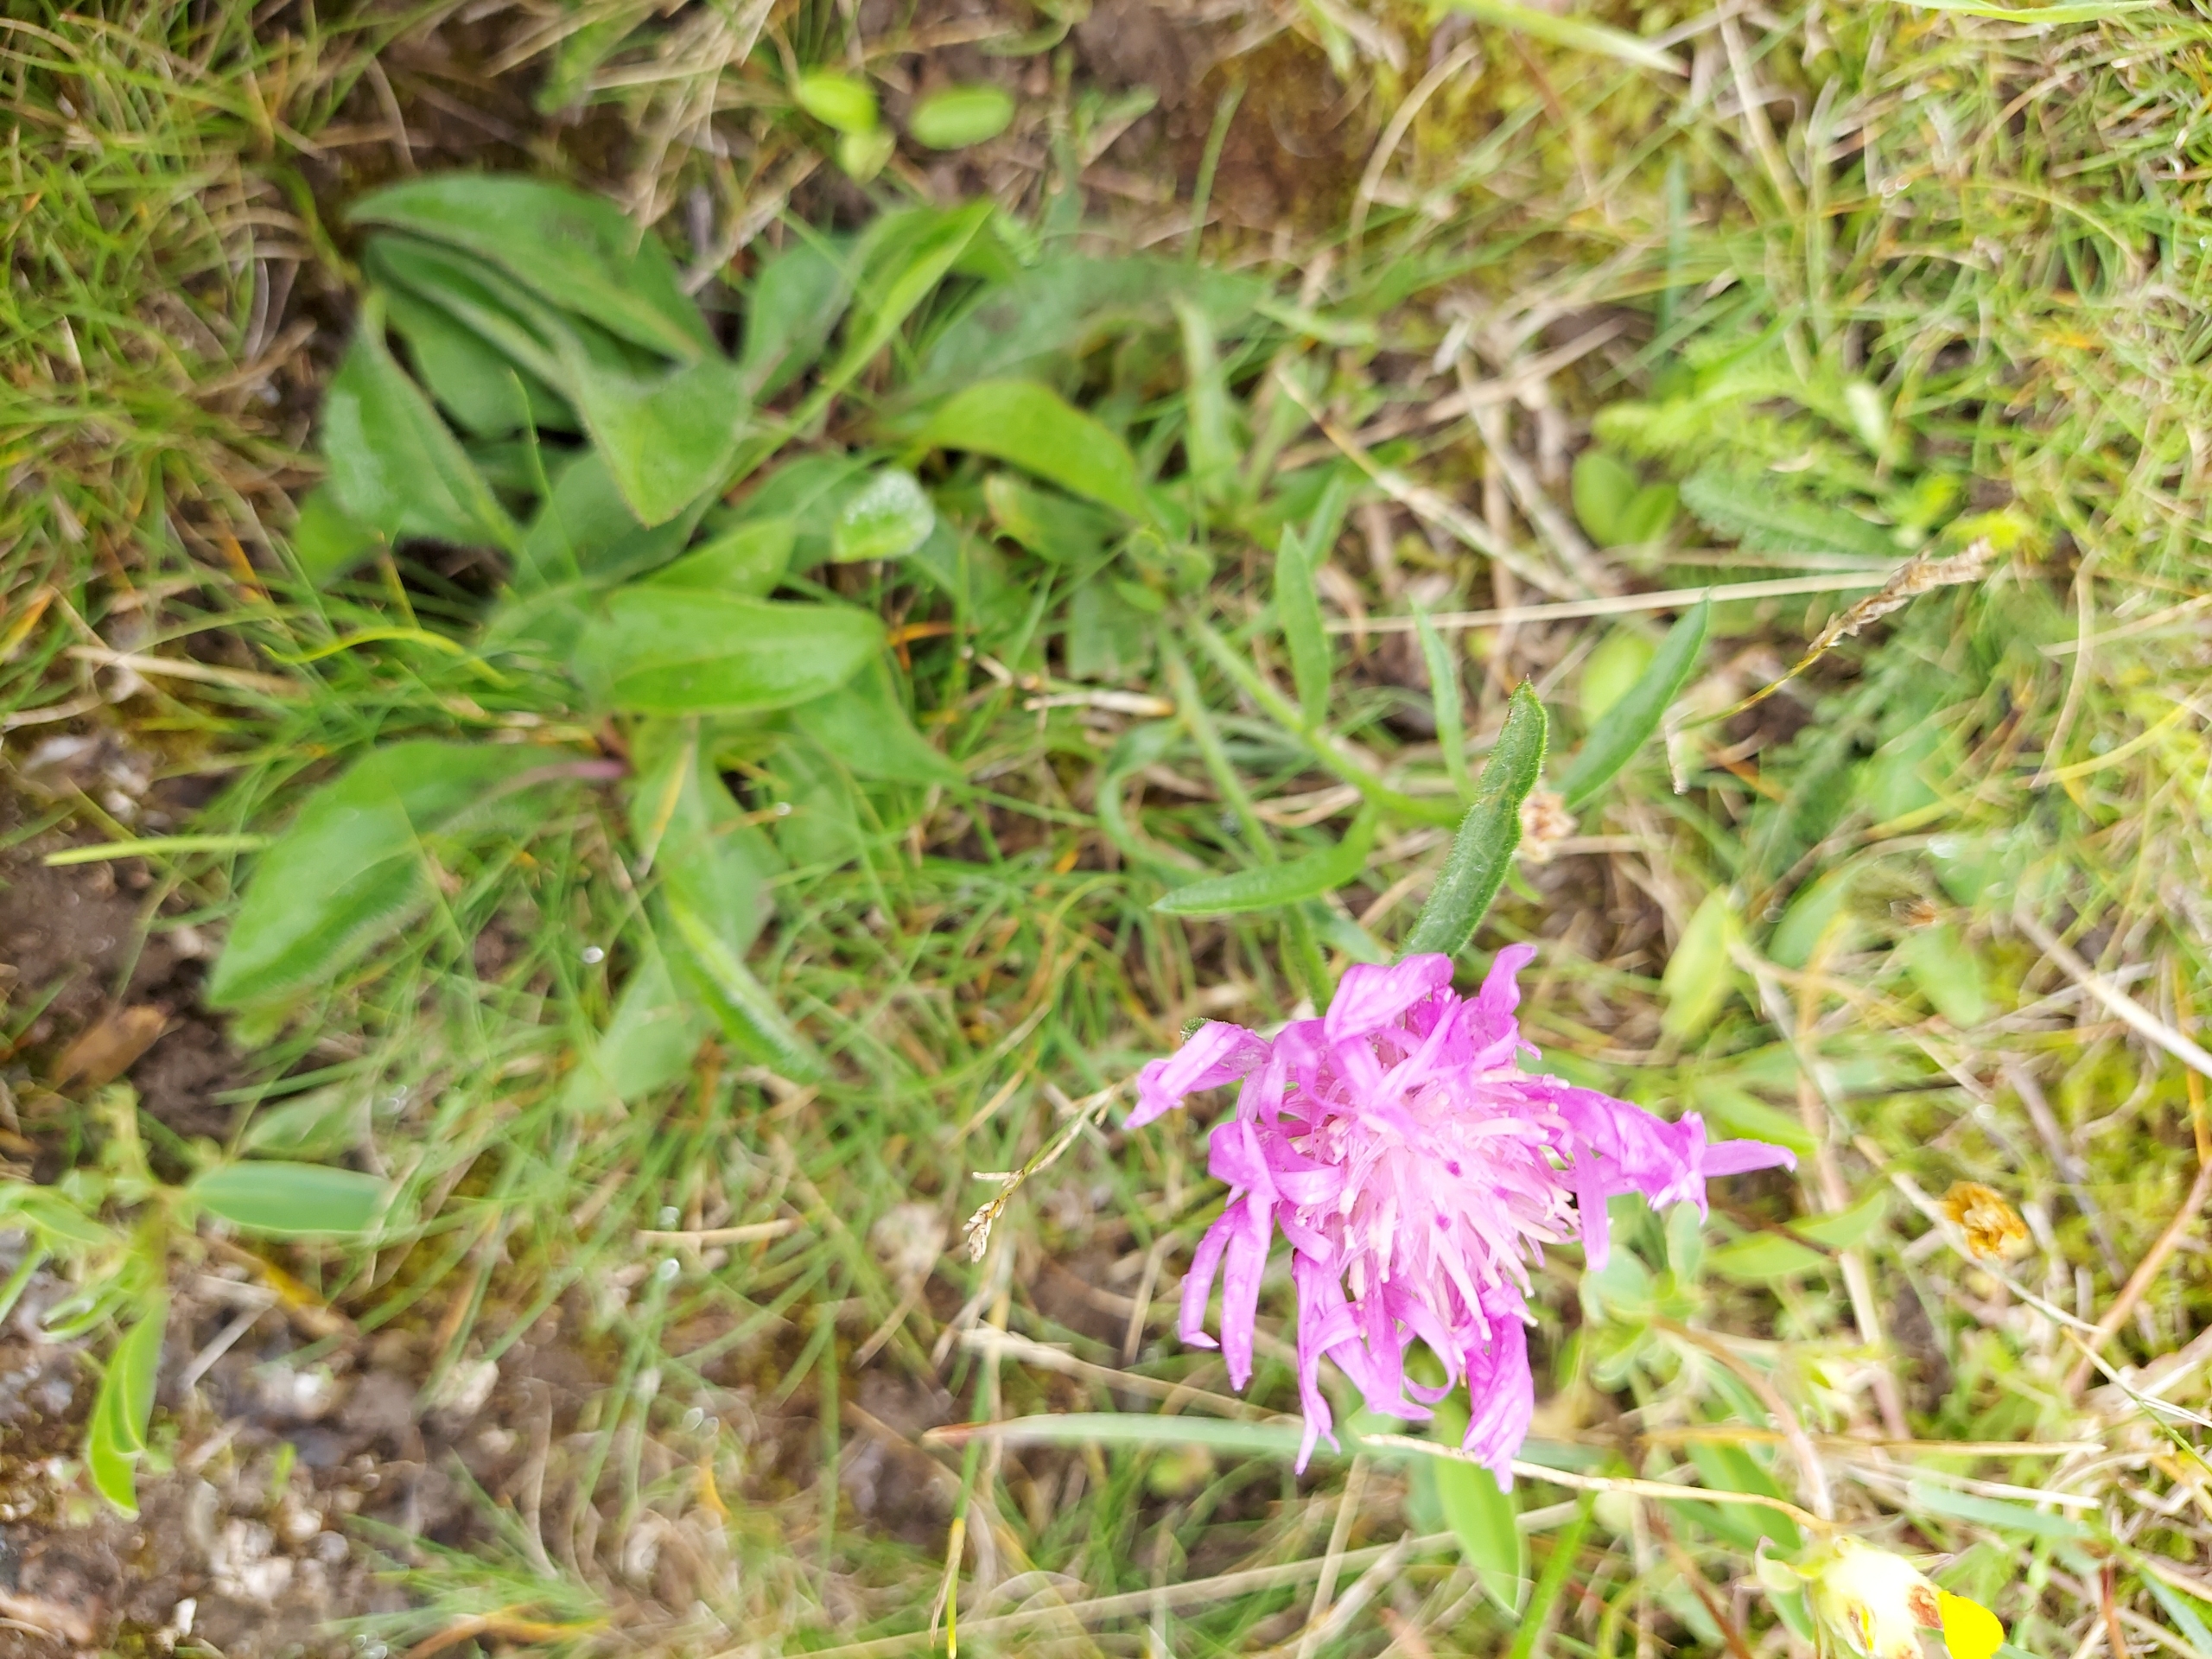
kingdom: Plantae
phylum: Tracheophyta
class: Magnoliopsida
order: Asterales
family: Asteraceae
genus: Centaurea
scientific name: Centaurea jacea
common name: Almindelig knopurt
